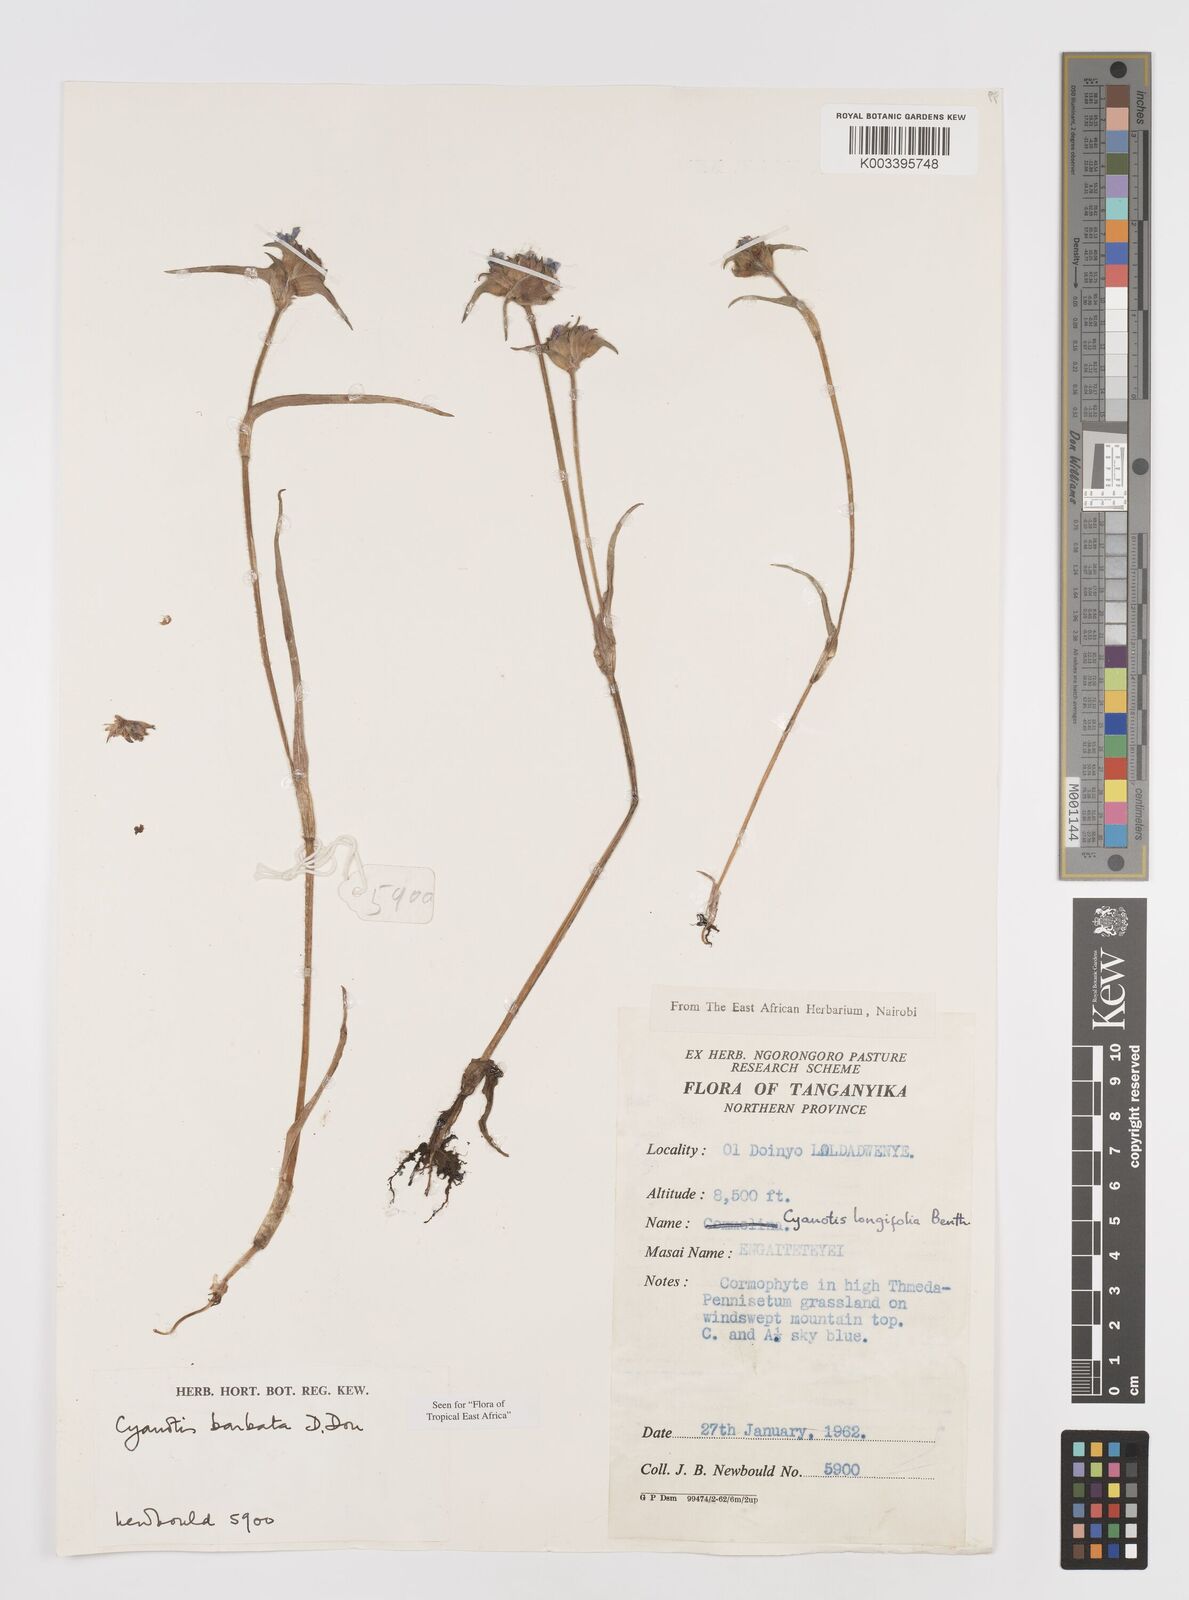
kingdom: Plantae
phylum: Tracheophyta
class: Liliopsida
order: Commelinales
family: Commelinaceae
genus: Cyanotis
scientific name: Cyanotis vaga
